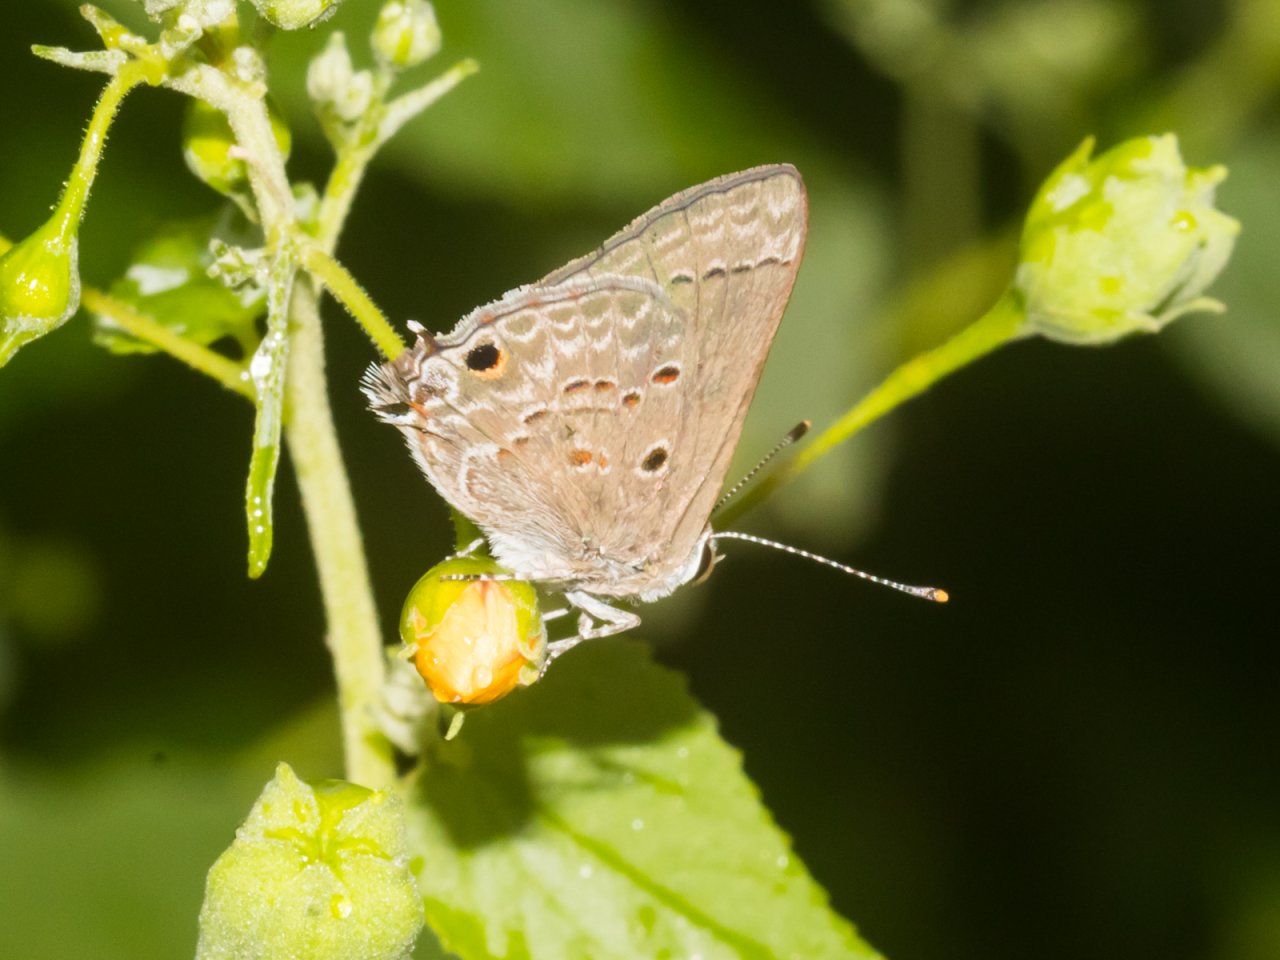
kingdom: Animalia
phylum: Arthropoda
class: Insecta
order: Lepidoptera
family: Lycaenidae
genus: Callicista
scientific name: Callicista columella
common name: Mallow Scrub-Hairstreak
